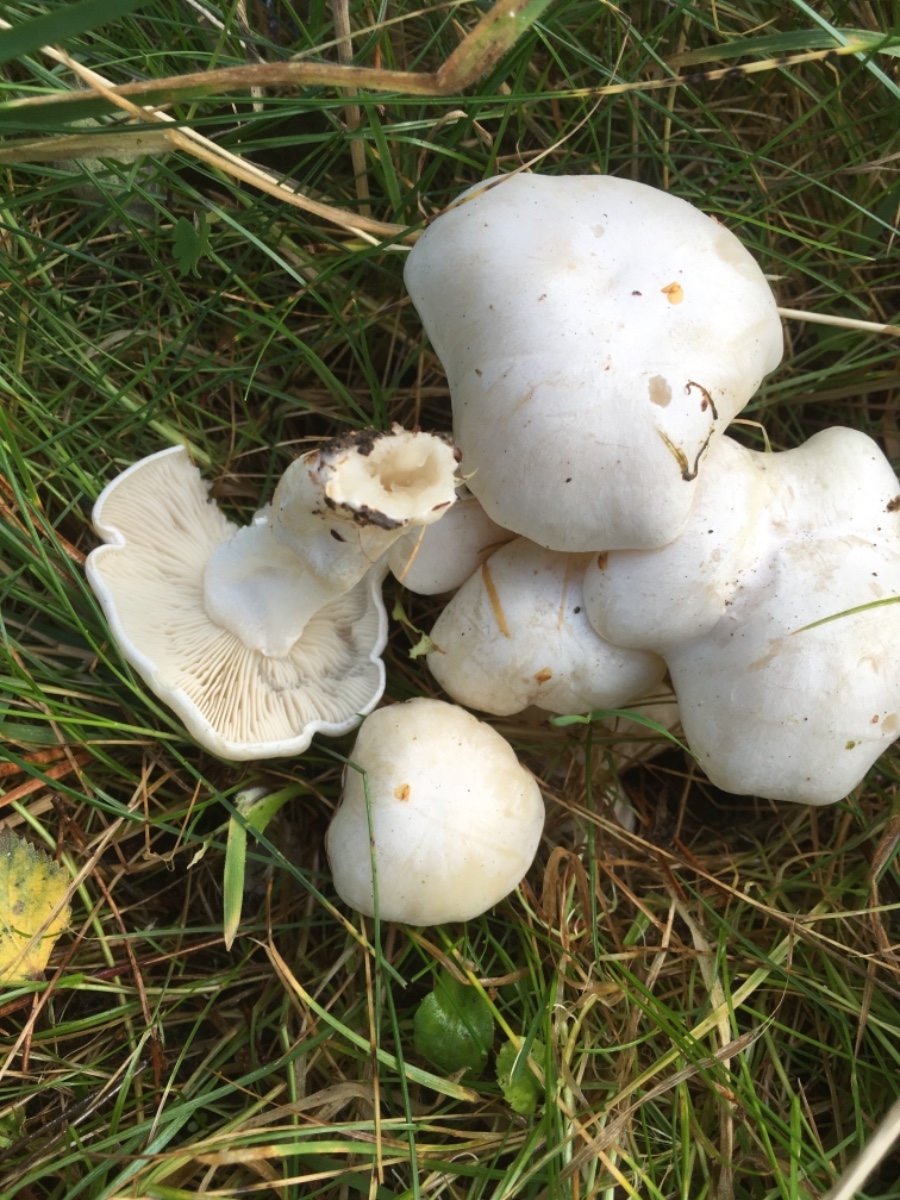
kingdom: Fungi
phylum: Basidiomycota
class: Agaricomycetes
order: Agaricales
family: Tricholomataceae
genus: Leucocybe
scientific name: Leucocybe connata
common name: knippe-tragthat
